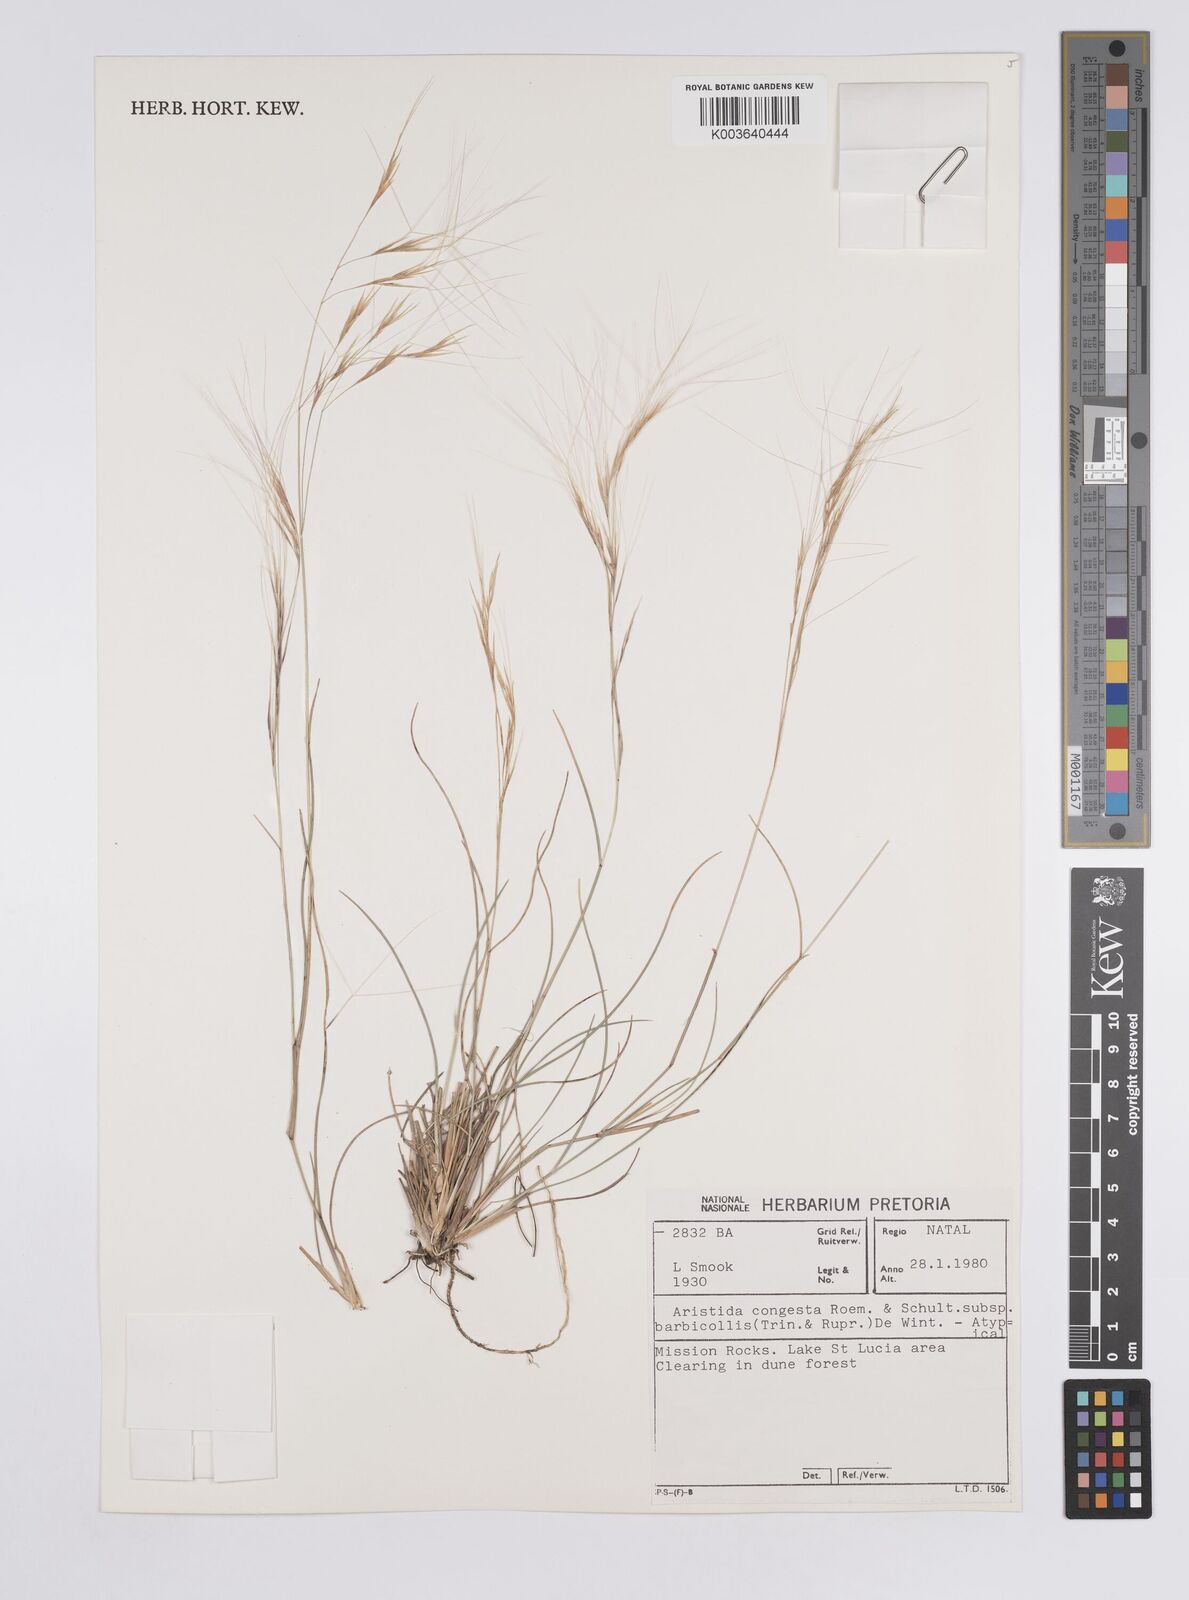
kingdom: Plantae
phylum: Tracheophyta
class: Liliopsida
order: Poales
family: Poaceae
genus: Aristida
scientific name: Aristida barbicollis
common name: Spreading prickle grass
